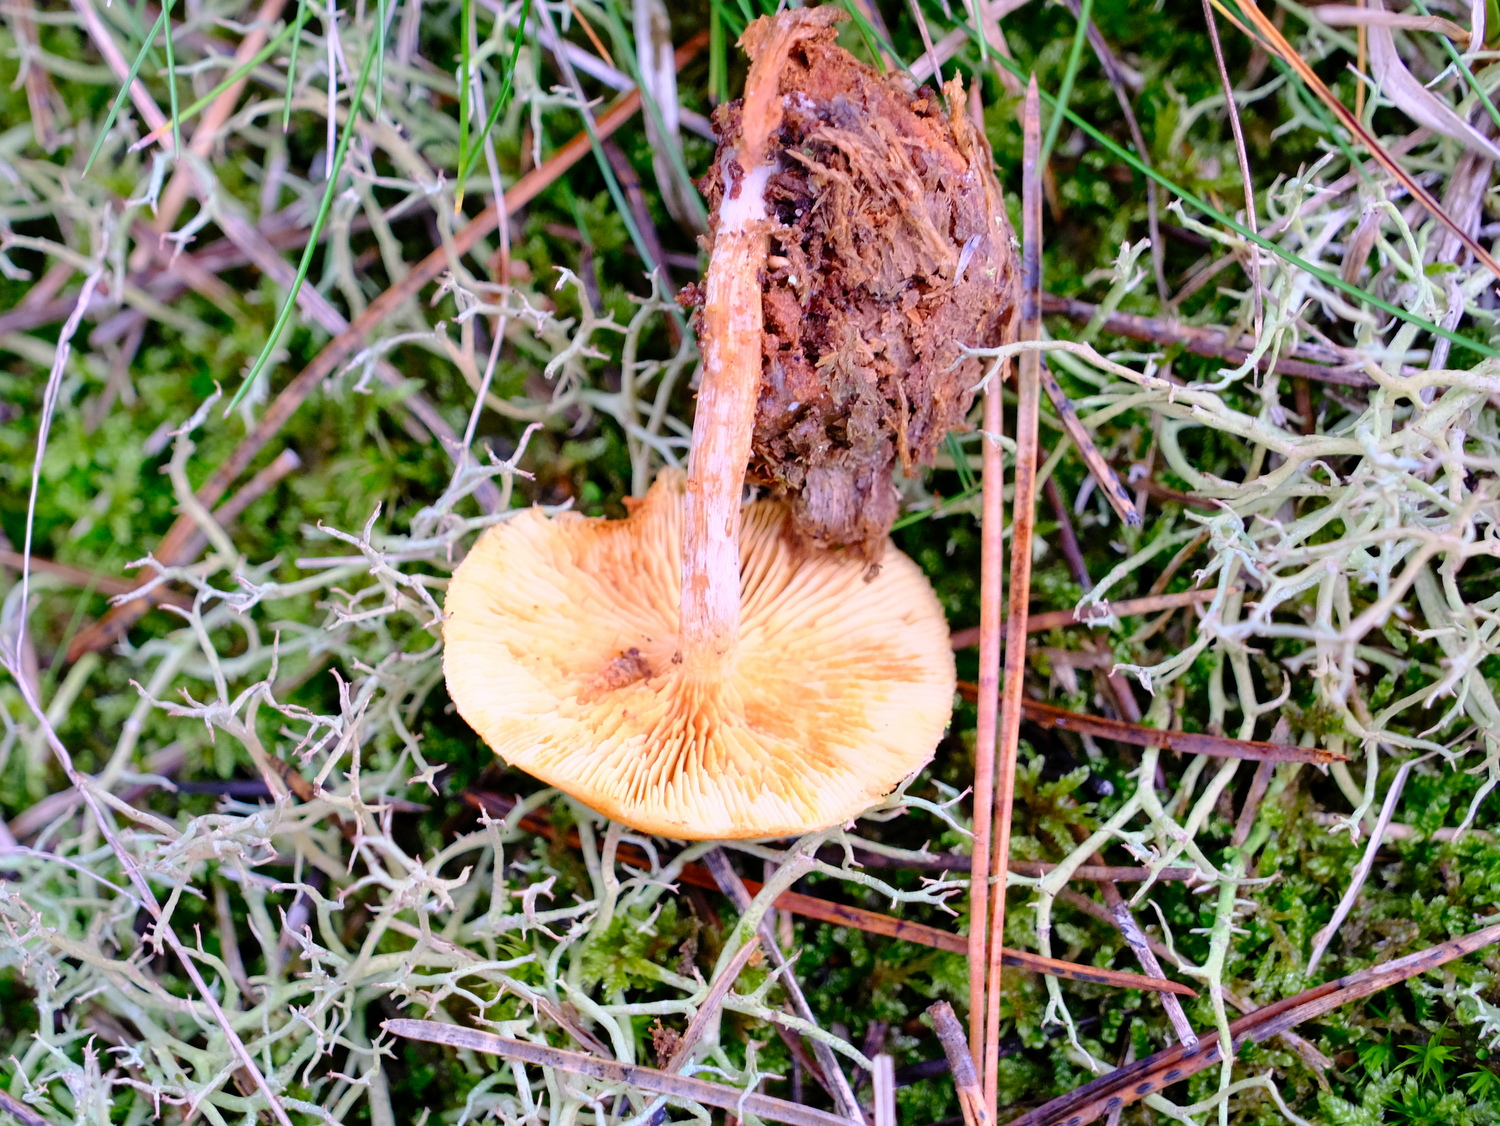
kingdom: Fungi
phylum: Basidiomycota
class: Agaricomycetes
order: Agaricales
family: Hymenogastraceae
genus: Gymnopilus
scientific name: Gymnopilus penetrans
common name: plettet flammehat
